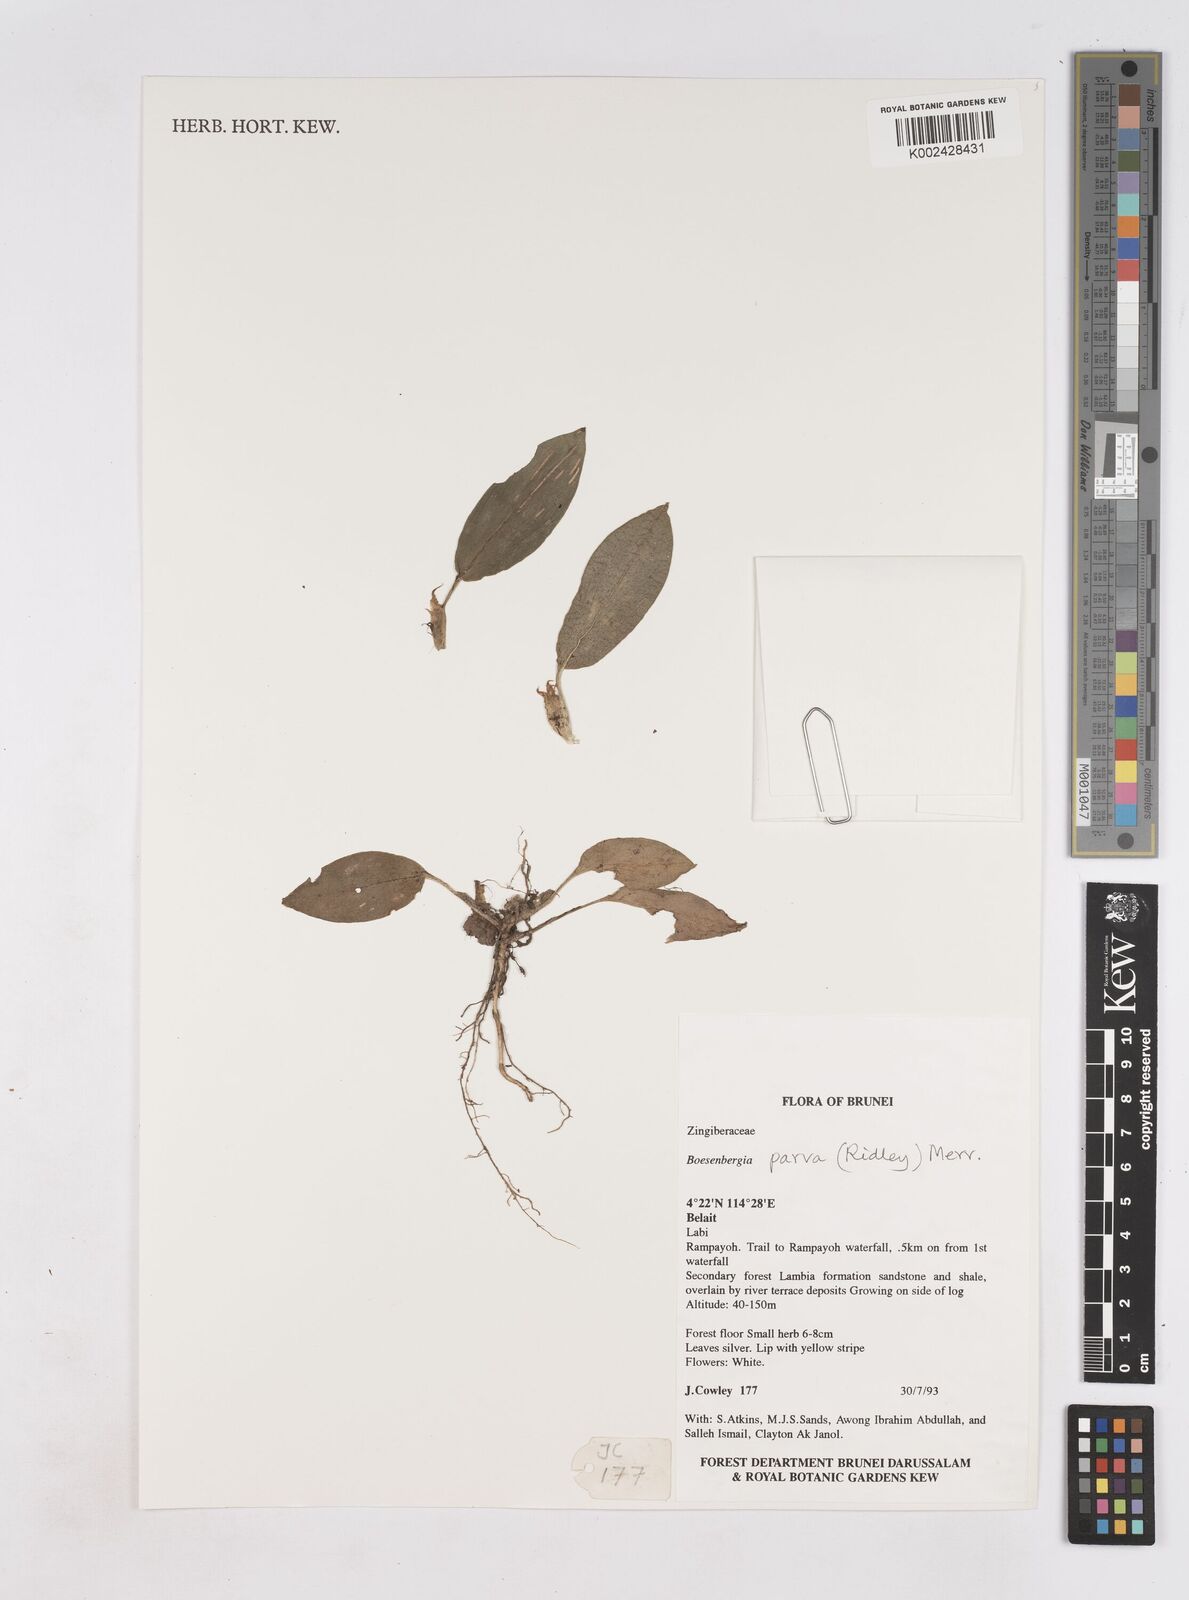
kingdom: Plantae
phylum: Tracheophyta
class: Liliopsida
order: Zingiberales
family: Zingiberaceae
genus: Boesenbergia
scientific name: Boesenbergia parva
